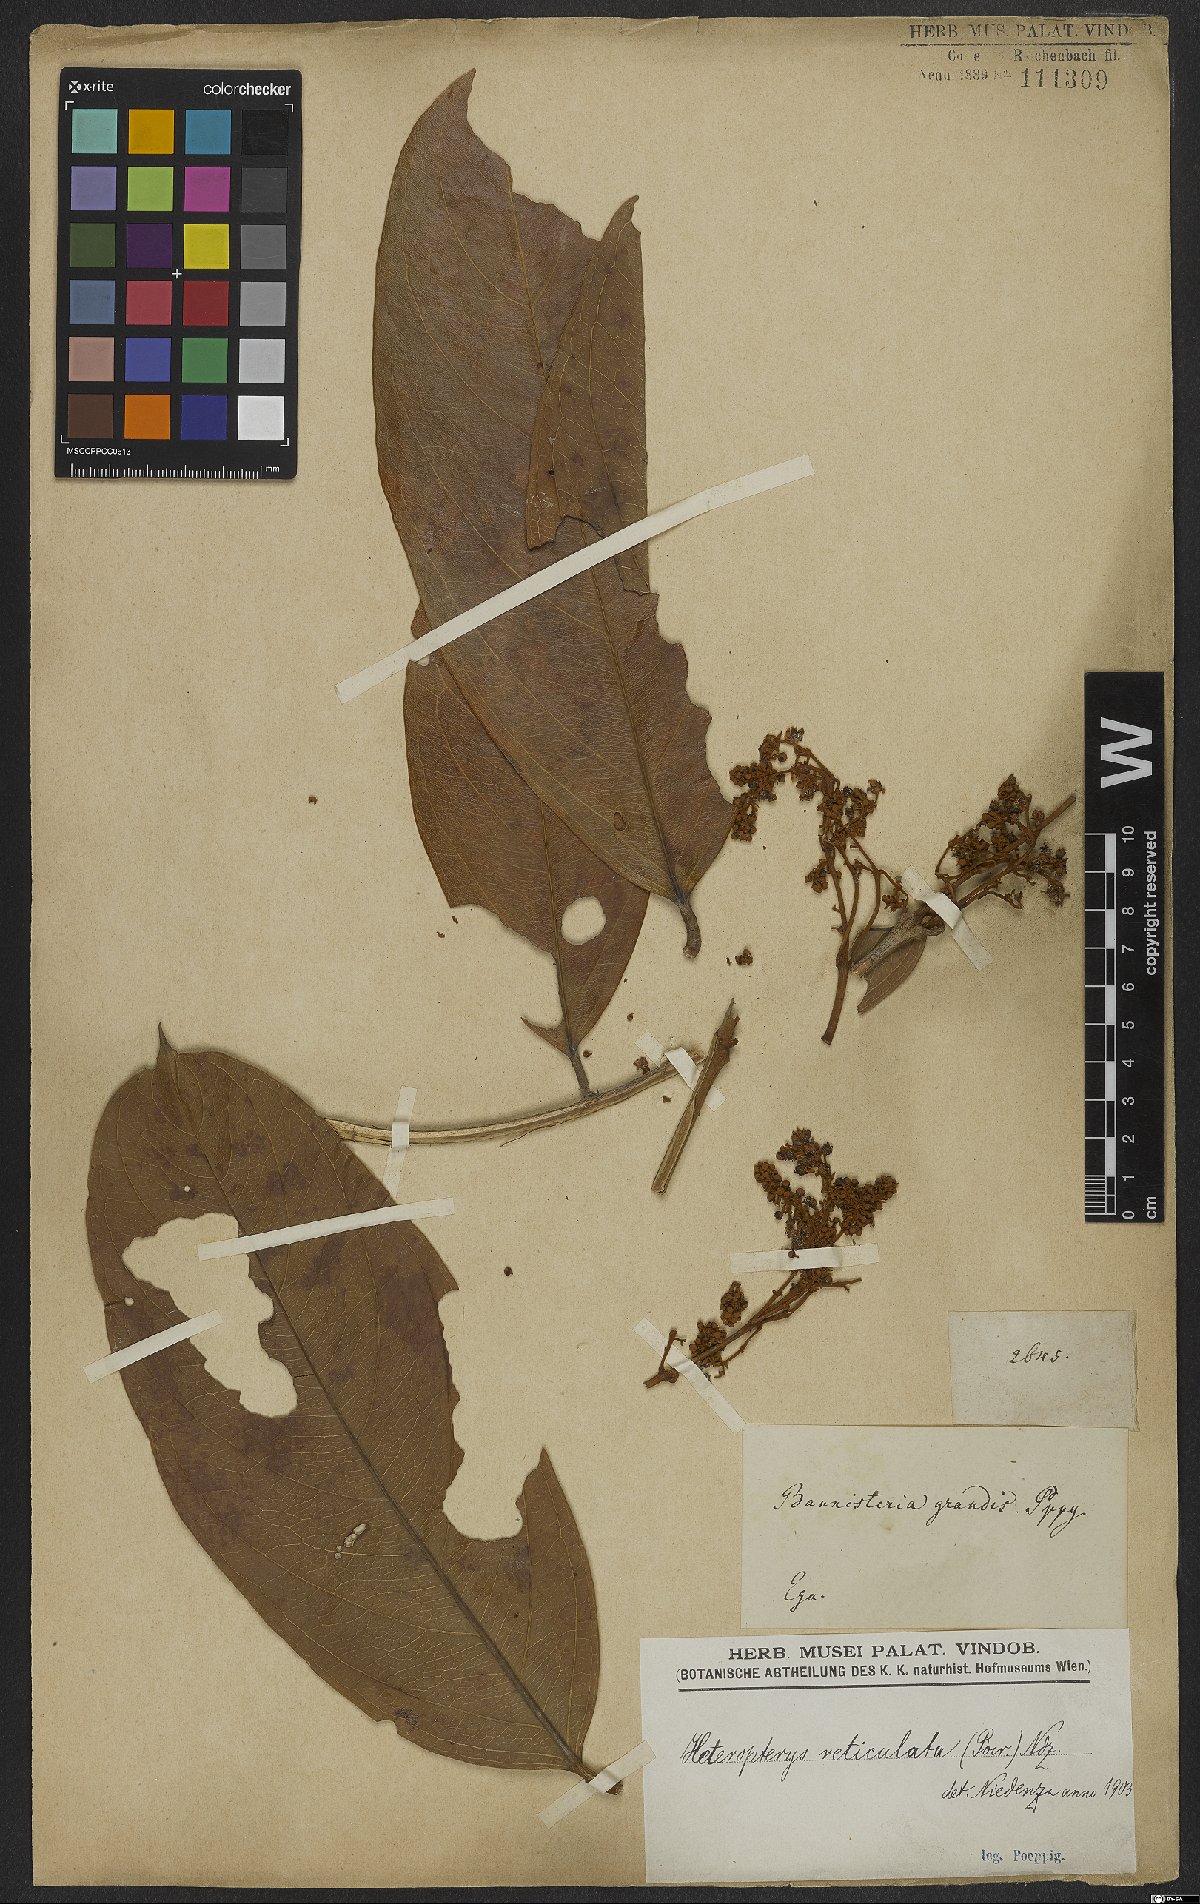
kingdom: Plantae
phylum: Tracheophyta
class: Magnoliopsida
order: Malpighiales
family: Malpighiaceae
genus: Heteropterys
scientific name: Heteropterys reticulata
